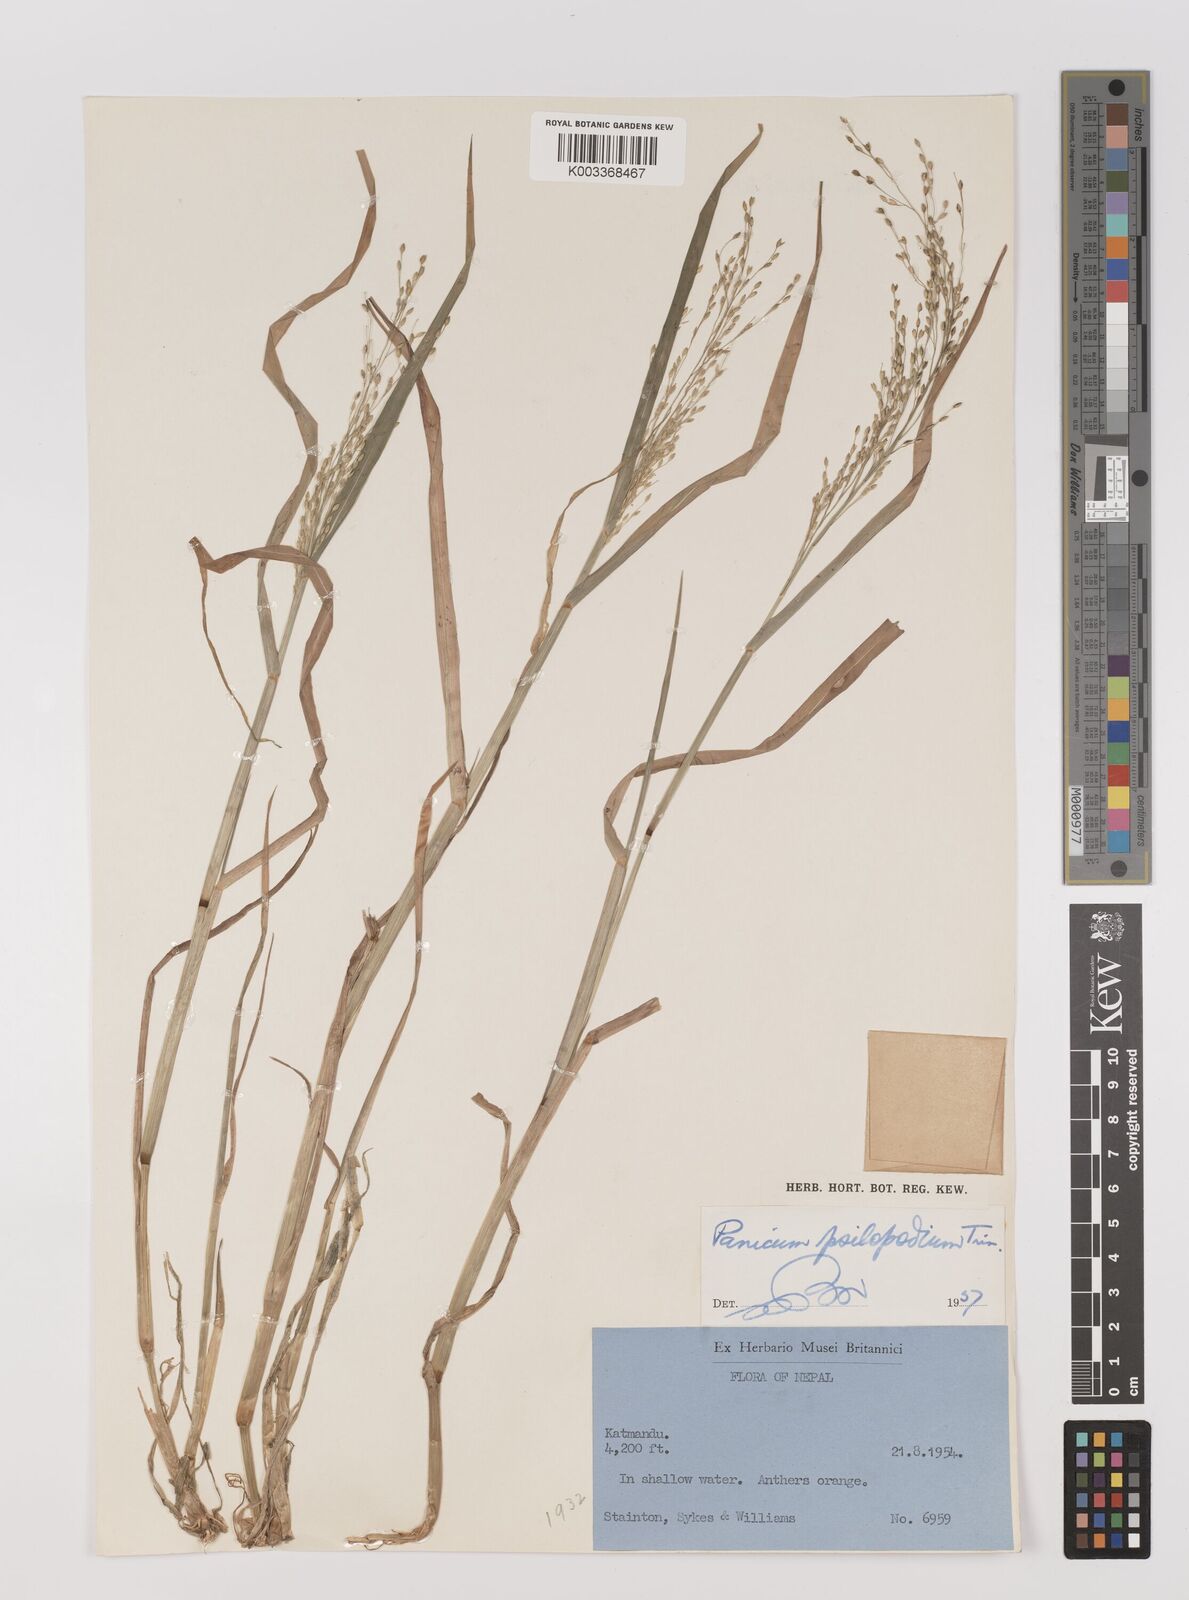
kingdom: Plantae
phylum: Tracheophyta
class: Liliopsida
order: Poales
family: Poaceae
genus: Panicum
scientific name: Panicum sumatrense
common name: Little millet
